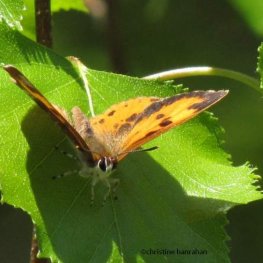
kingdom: Animalia
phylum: Arthropoda
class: Insecta
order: Lepidoptera
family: Lycaenidae
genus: Feniseca
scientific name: Feniseca tarquinius
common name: Harvester
